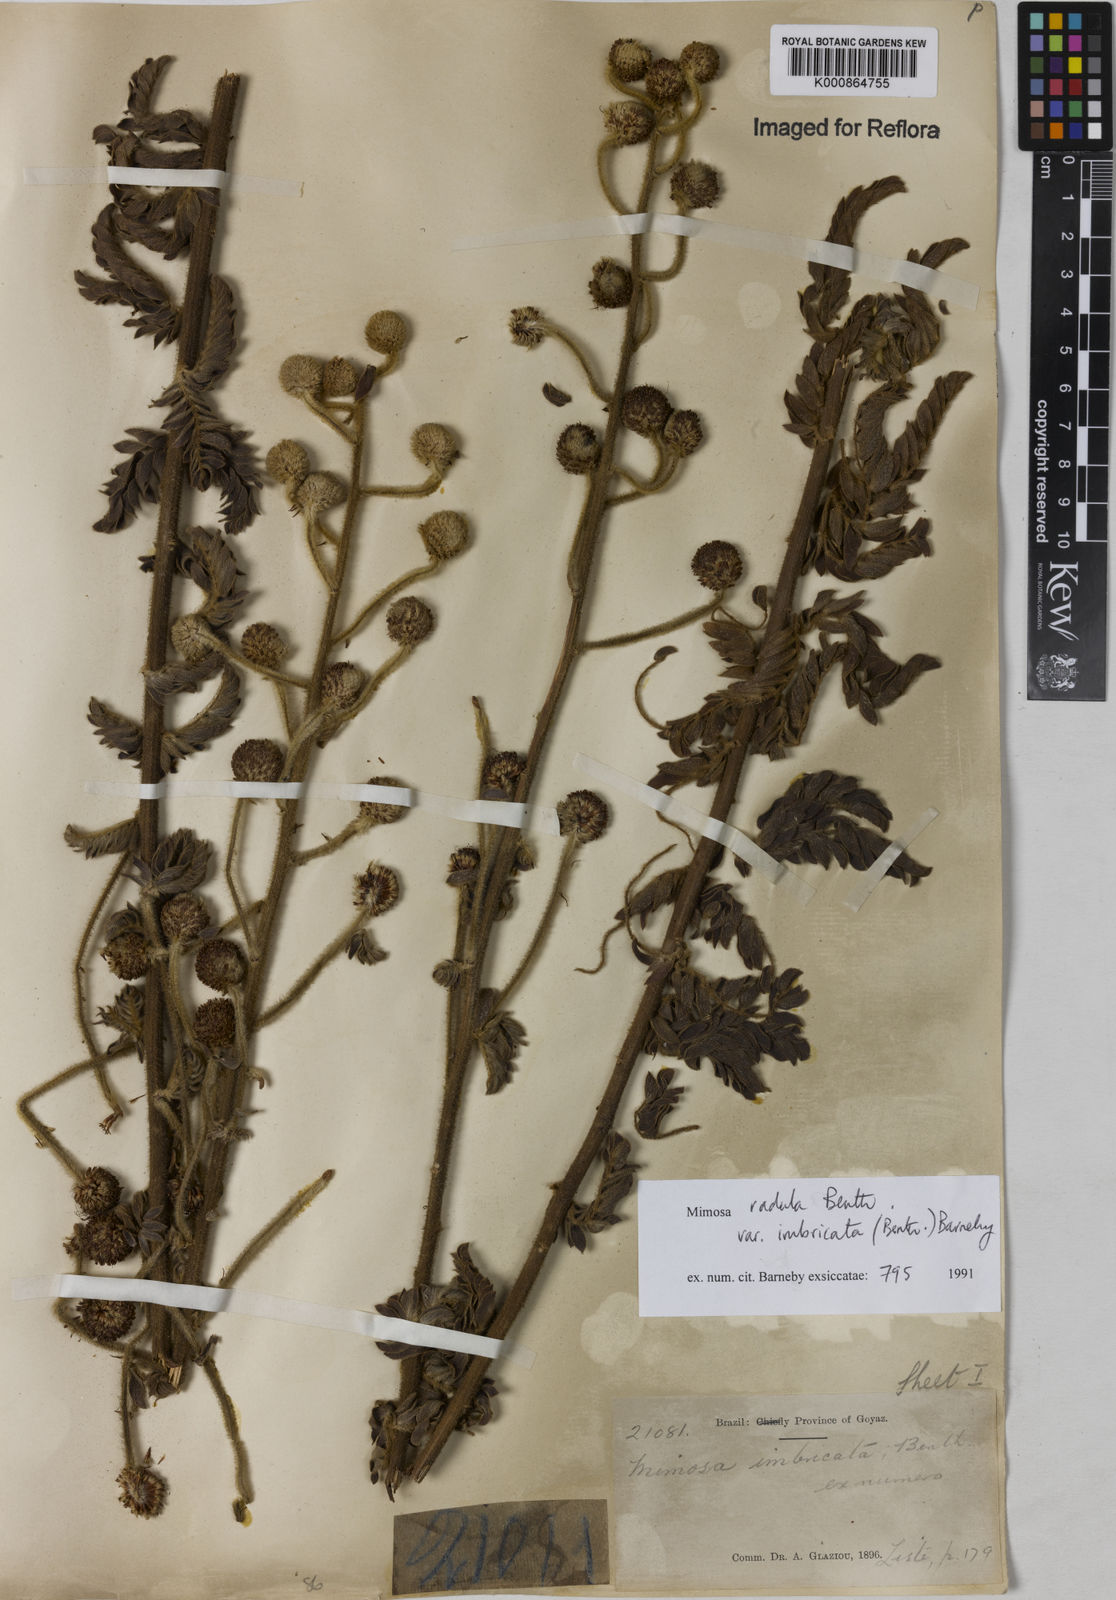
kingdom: Plantae
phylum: Tracheophyta
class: Magnoliopsida
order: Fabales
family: Fabaceae
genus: Mimosa
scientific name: Mimosa radula
